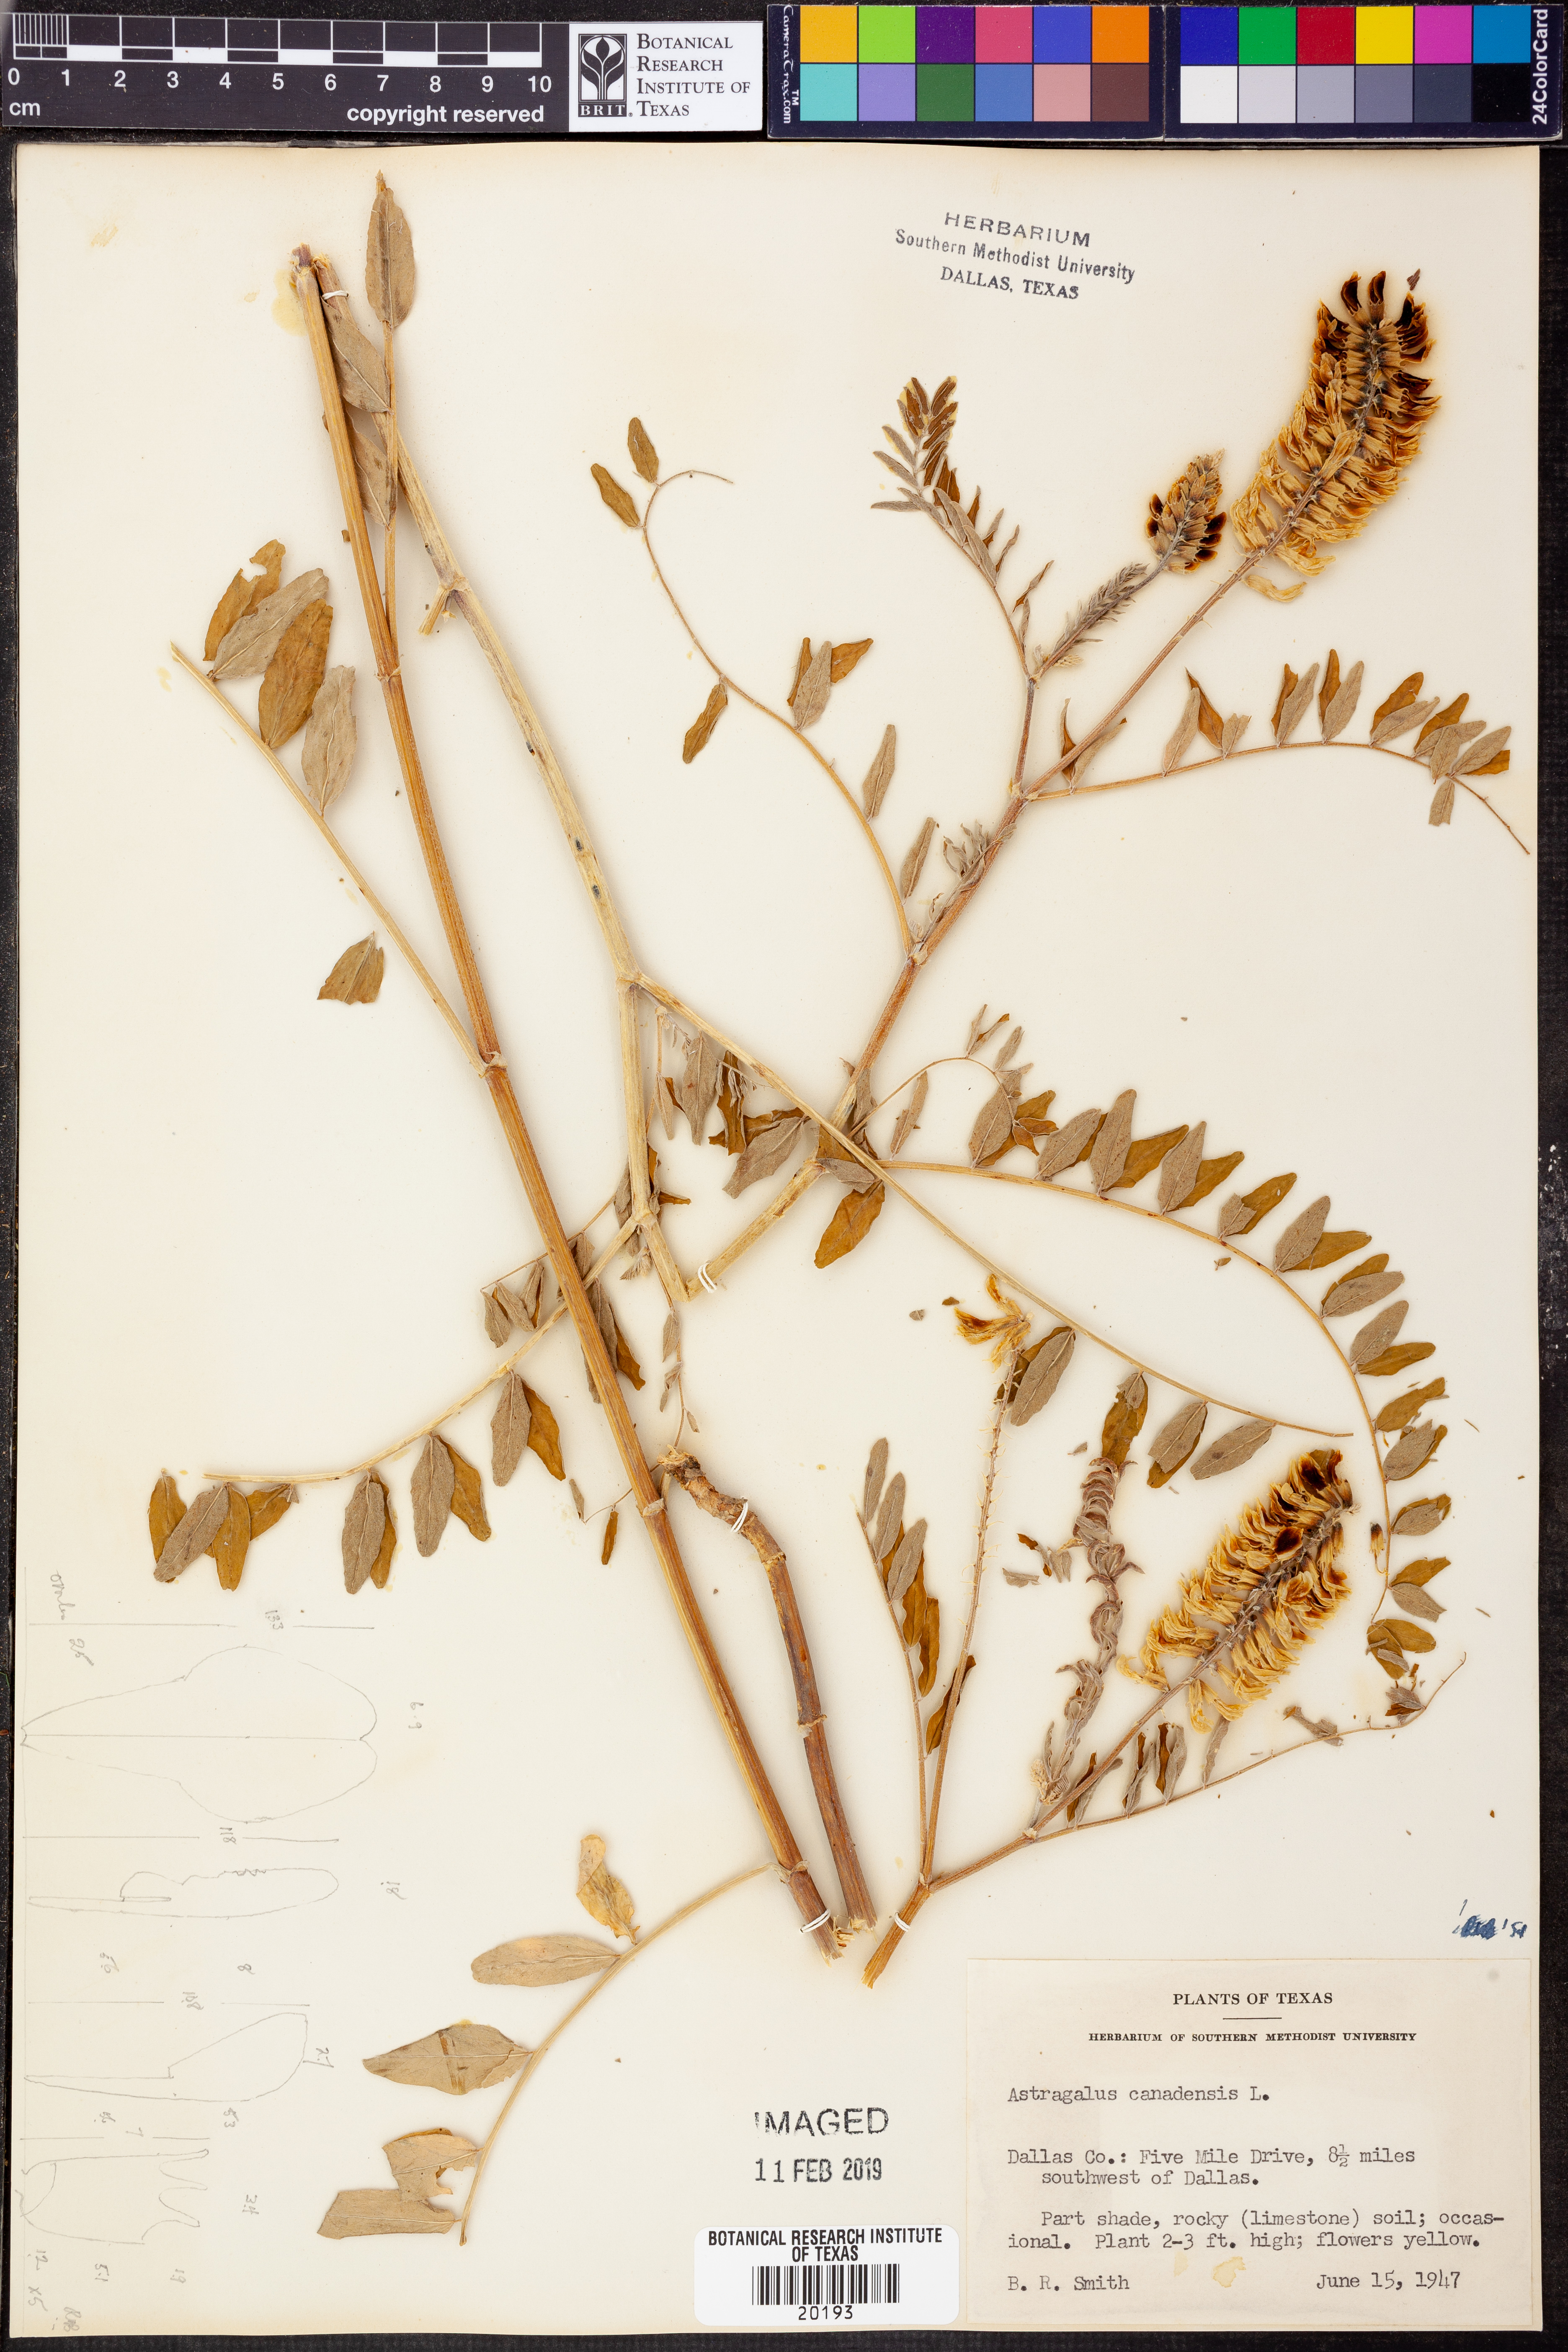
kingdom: Plantae
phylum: Tracheophyta
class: Magnoliopsida
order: Fabales
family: Fabaceae
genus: Astragalus
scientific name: Astragalus canadensis
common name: Canada milk-vetch
